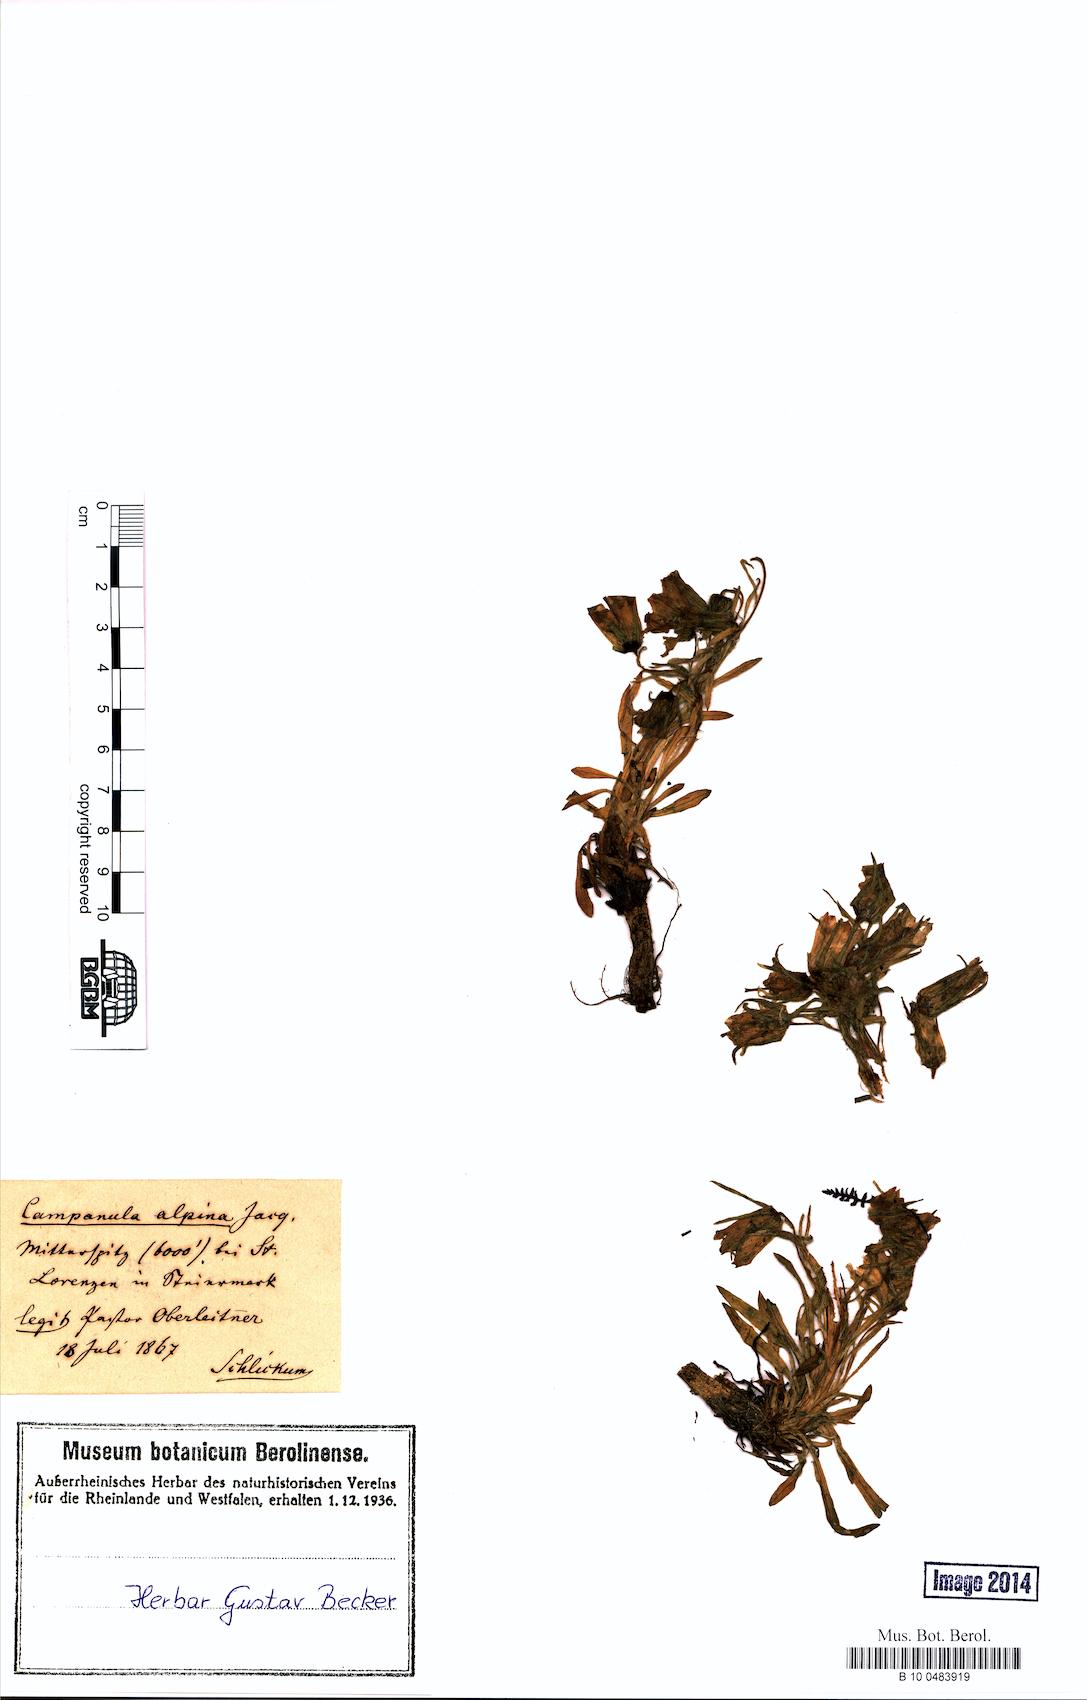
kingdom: Plantae
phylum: Tracheophyta
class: Magnoliopsida
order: Asterales
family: Campanulaceae
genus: Campanula
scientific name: Campanula alpina
